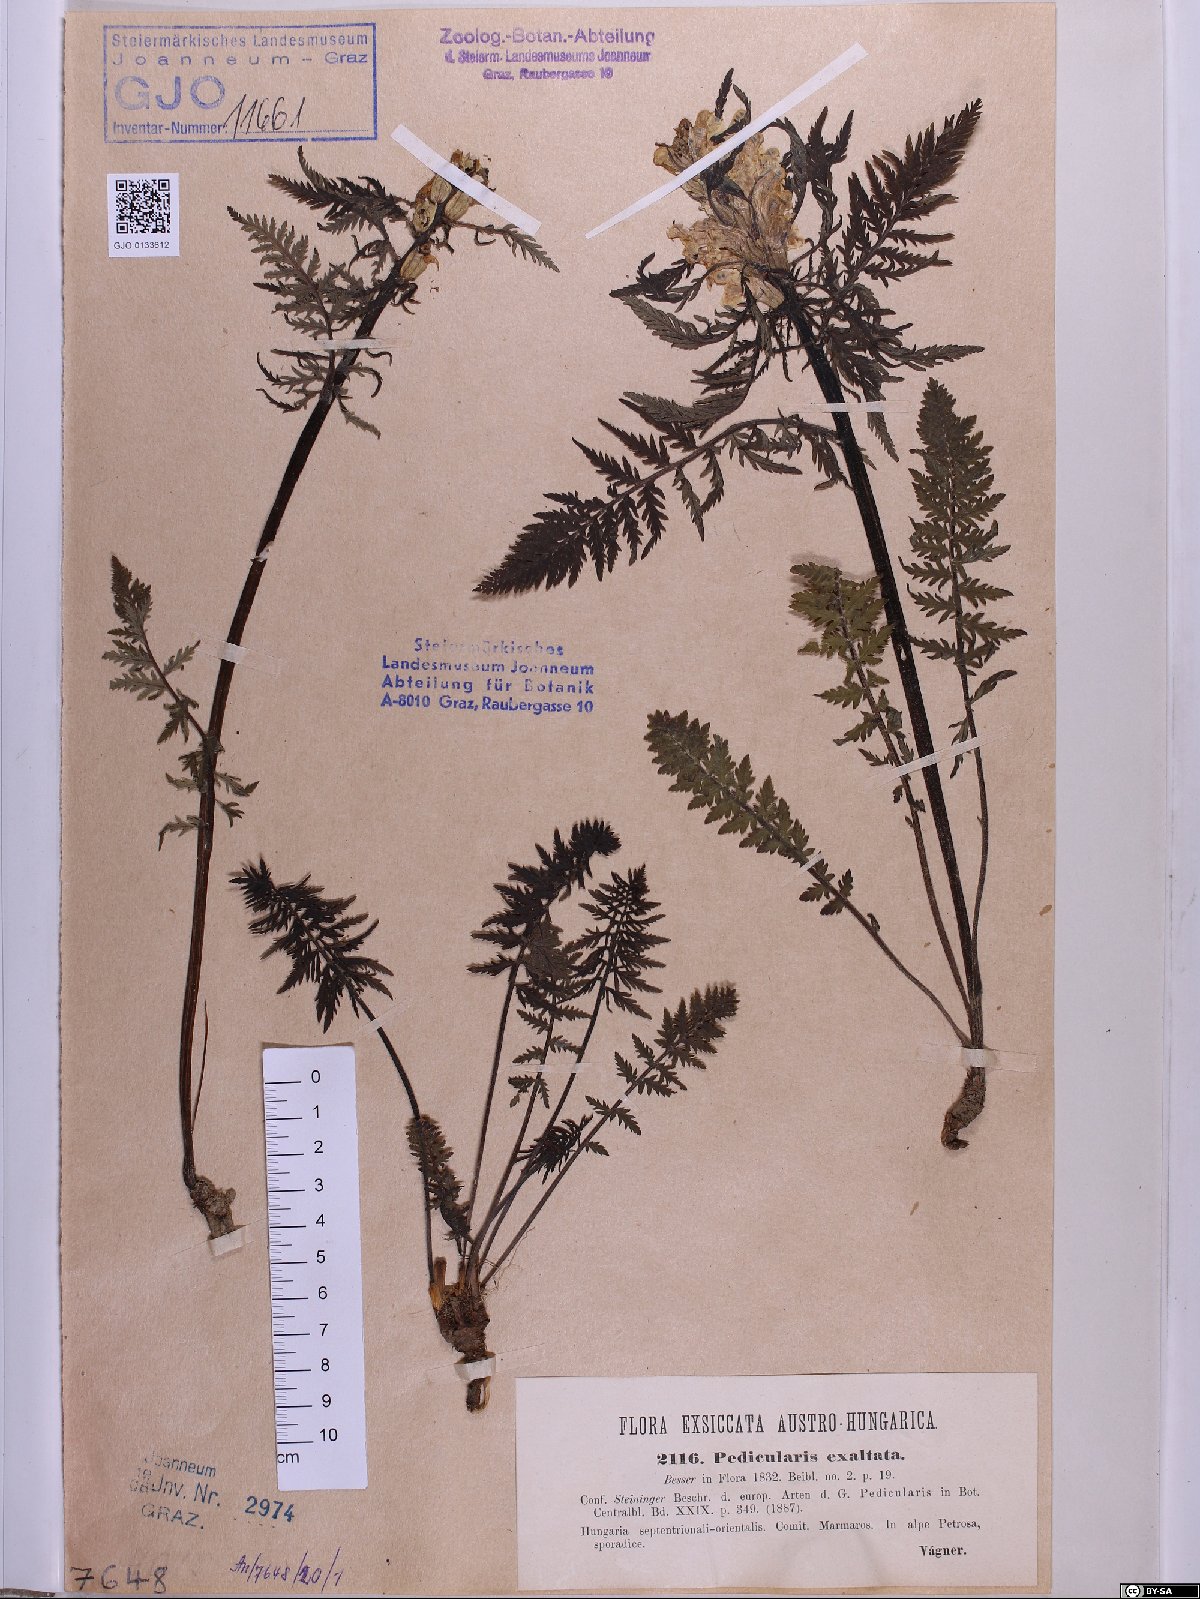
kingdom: Plantae
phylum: Tracheophyta
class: Magnoliopsida
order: Lamiales
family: Orobanchaceae
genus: Pedicularis
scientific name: Pedicularis exaltata
